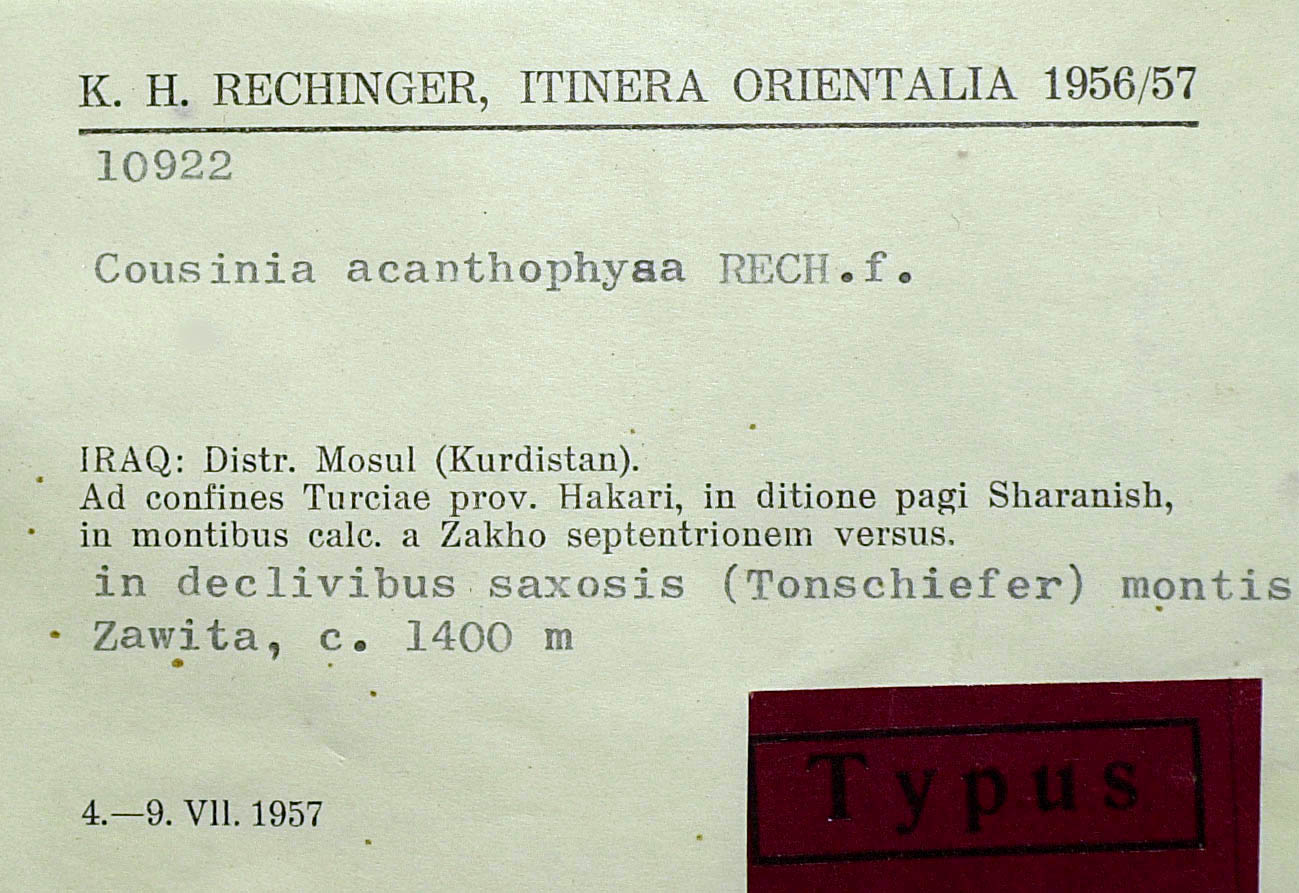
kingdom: Plantae
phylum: Tracheophyta
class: Magnoliopsida
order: Asterales
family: Asteraceae
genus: Cousinia
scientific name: Cousinia odontolepis
